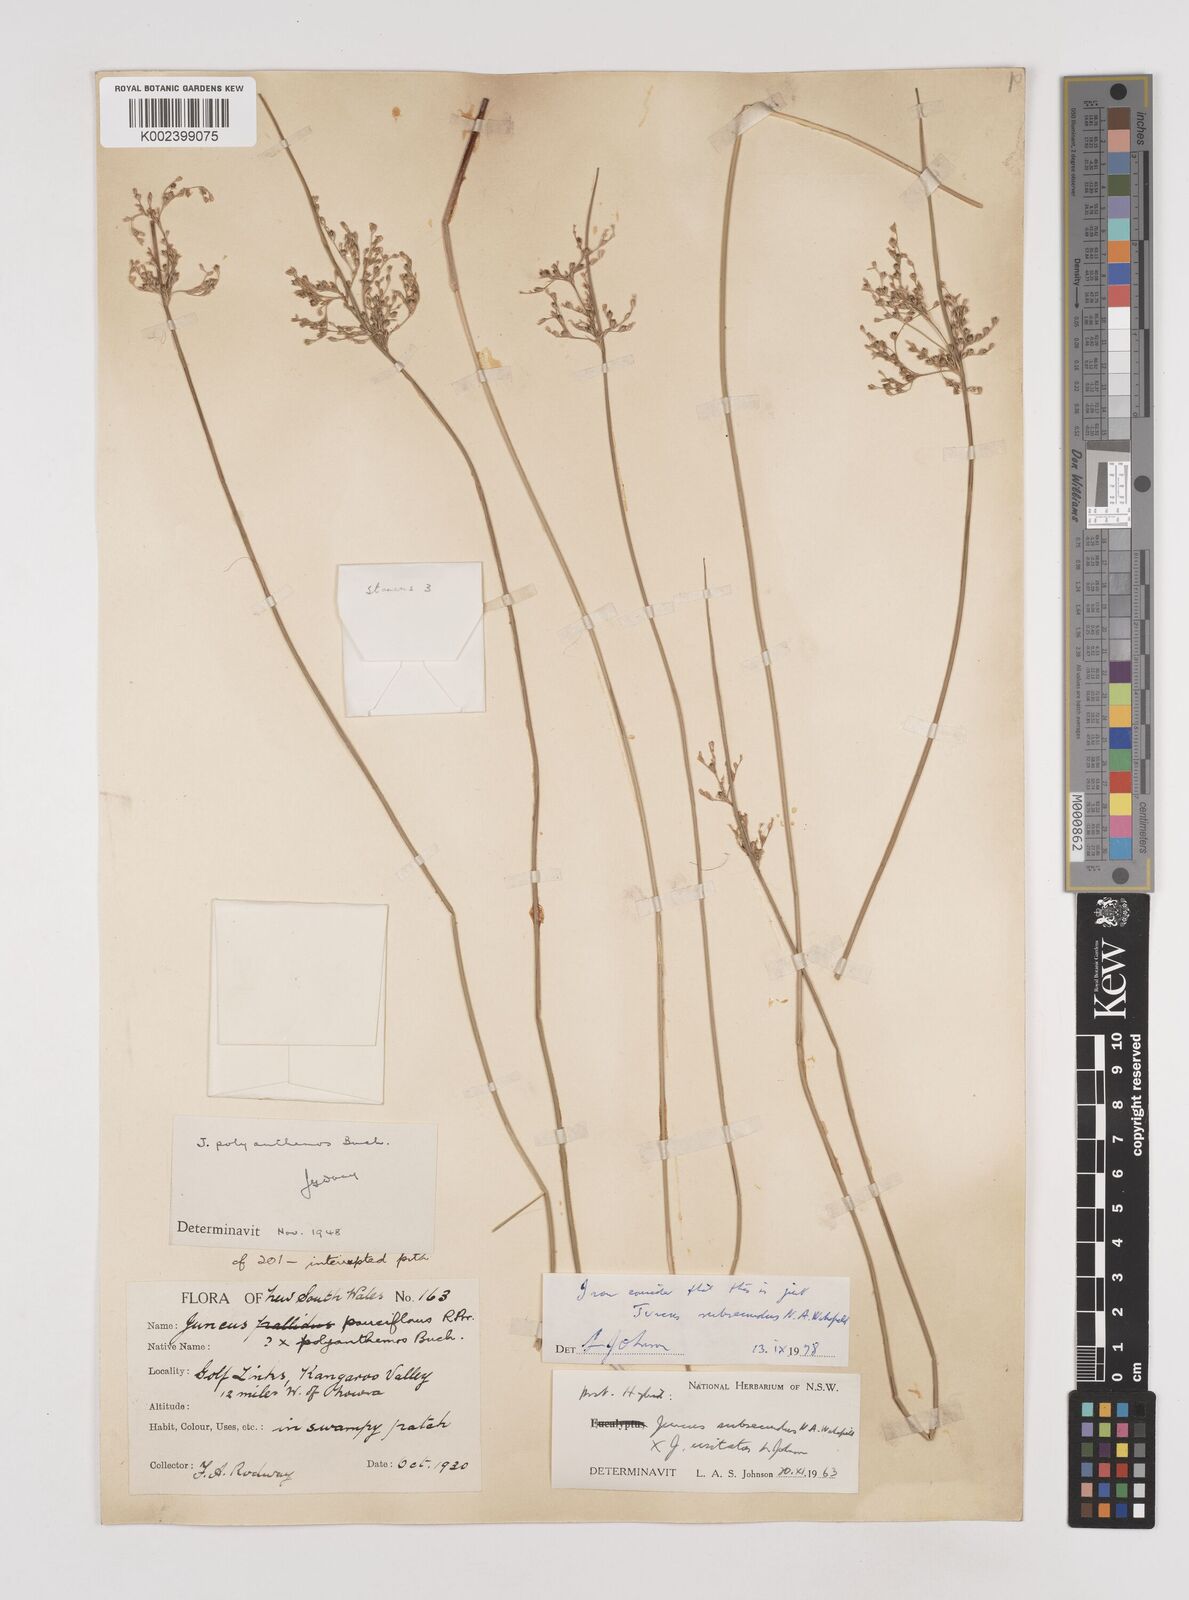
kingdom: Plantae
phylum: Tracheophyta
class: Liliopsida
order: Poales
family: Juncaceae
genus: Juncus
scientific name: Juncus subsecundus
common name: Fingered rush
